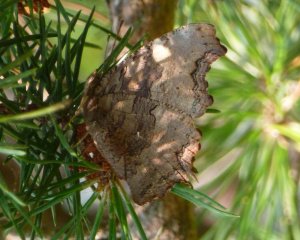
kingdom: Animalia
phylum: Arthropoda
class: Insecta
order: Lepidoptera
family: Nymphalidae
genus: Polygonia
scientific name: Polygonia vaualbum
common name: Compton Tortoiseshell
